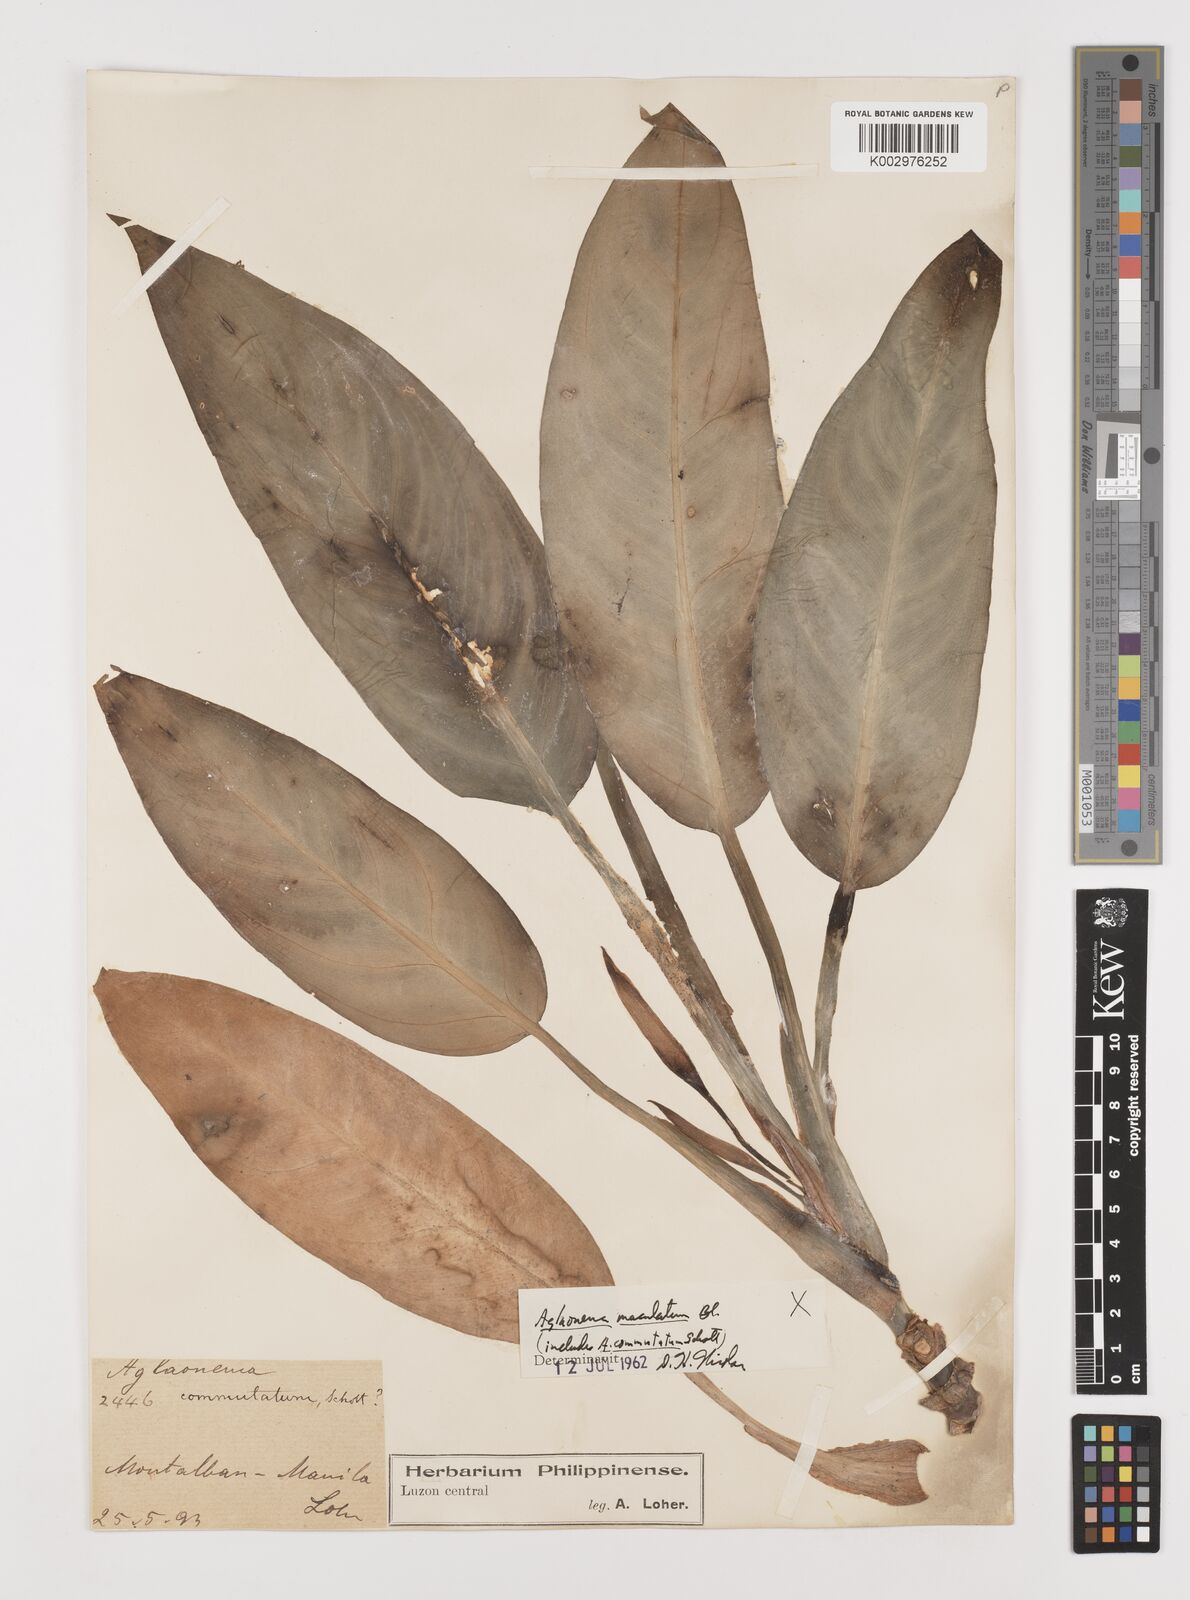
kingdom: Plantae
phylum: Tracheophyta
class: Liliopsida
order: Alismatales
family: Araceae
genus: Aglaonema
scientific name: Aglaonema commutatum
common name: Philippine evergreen
